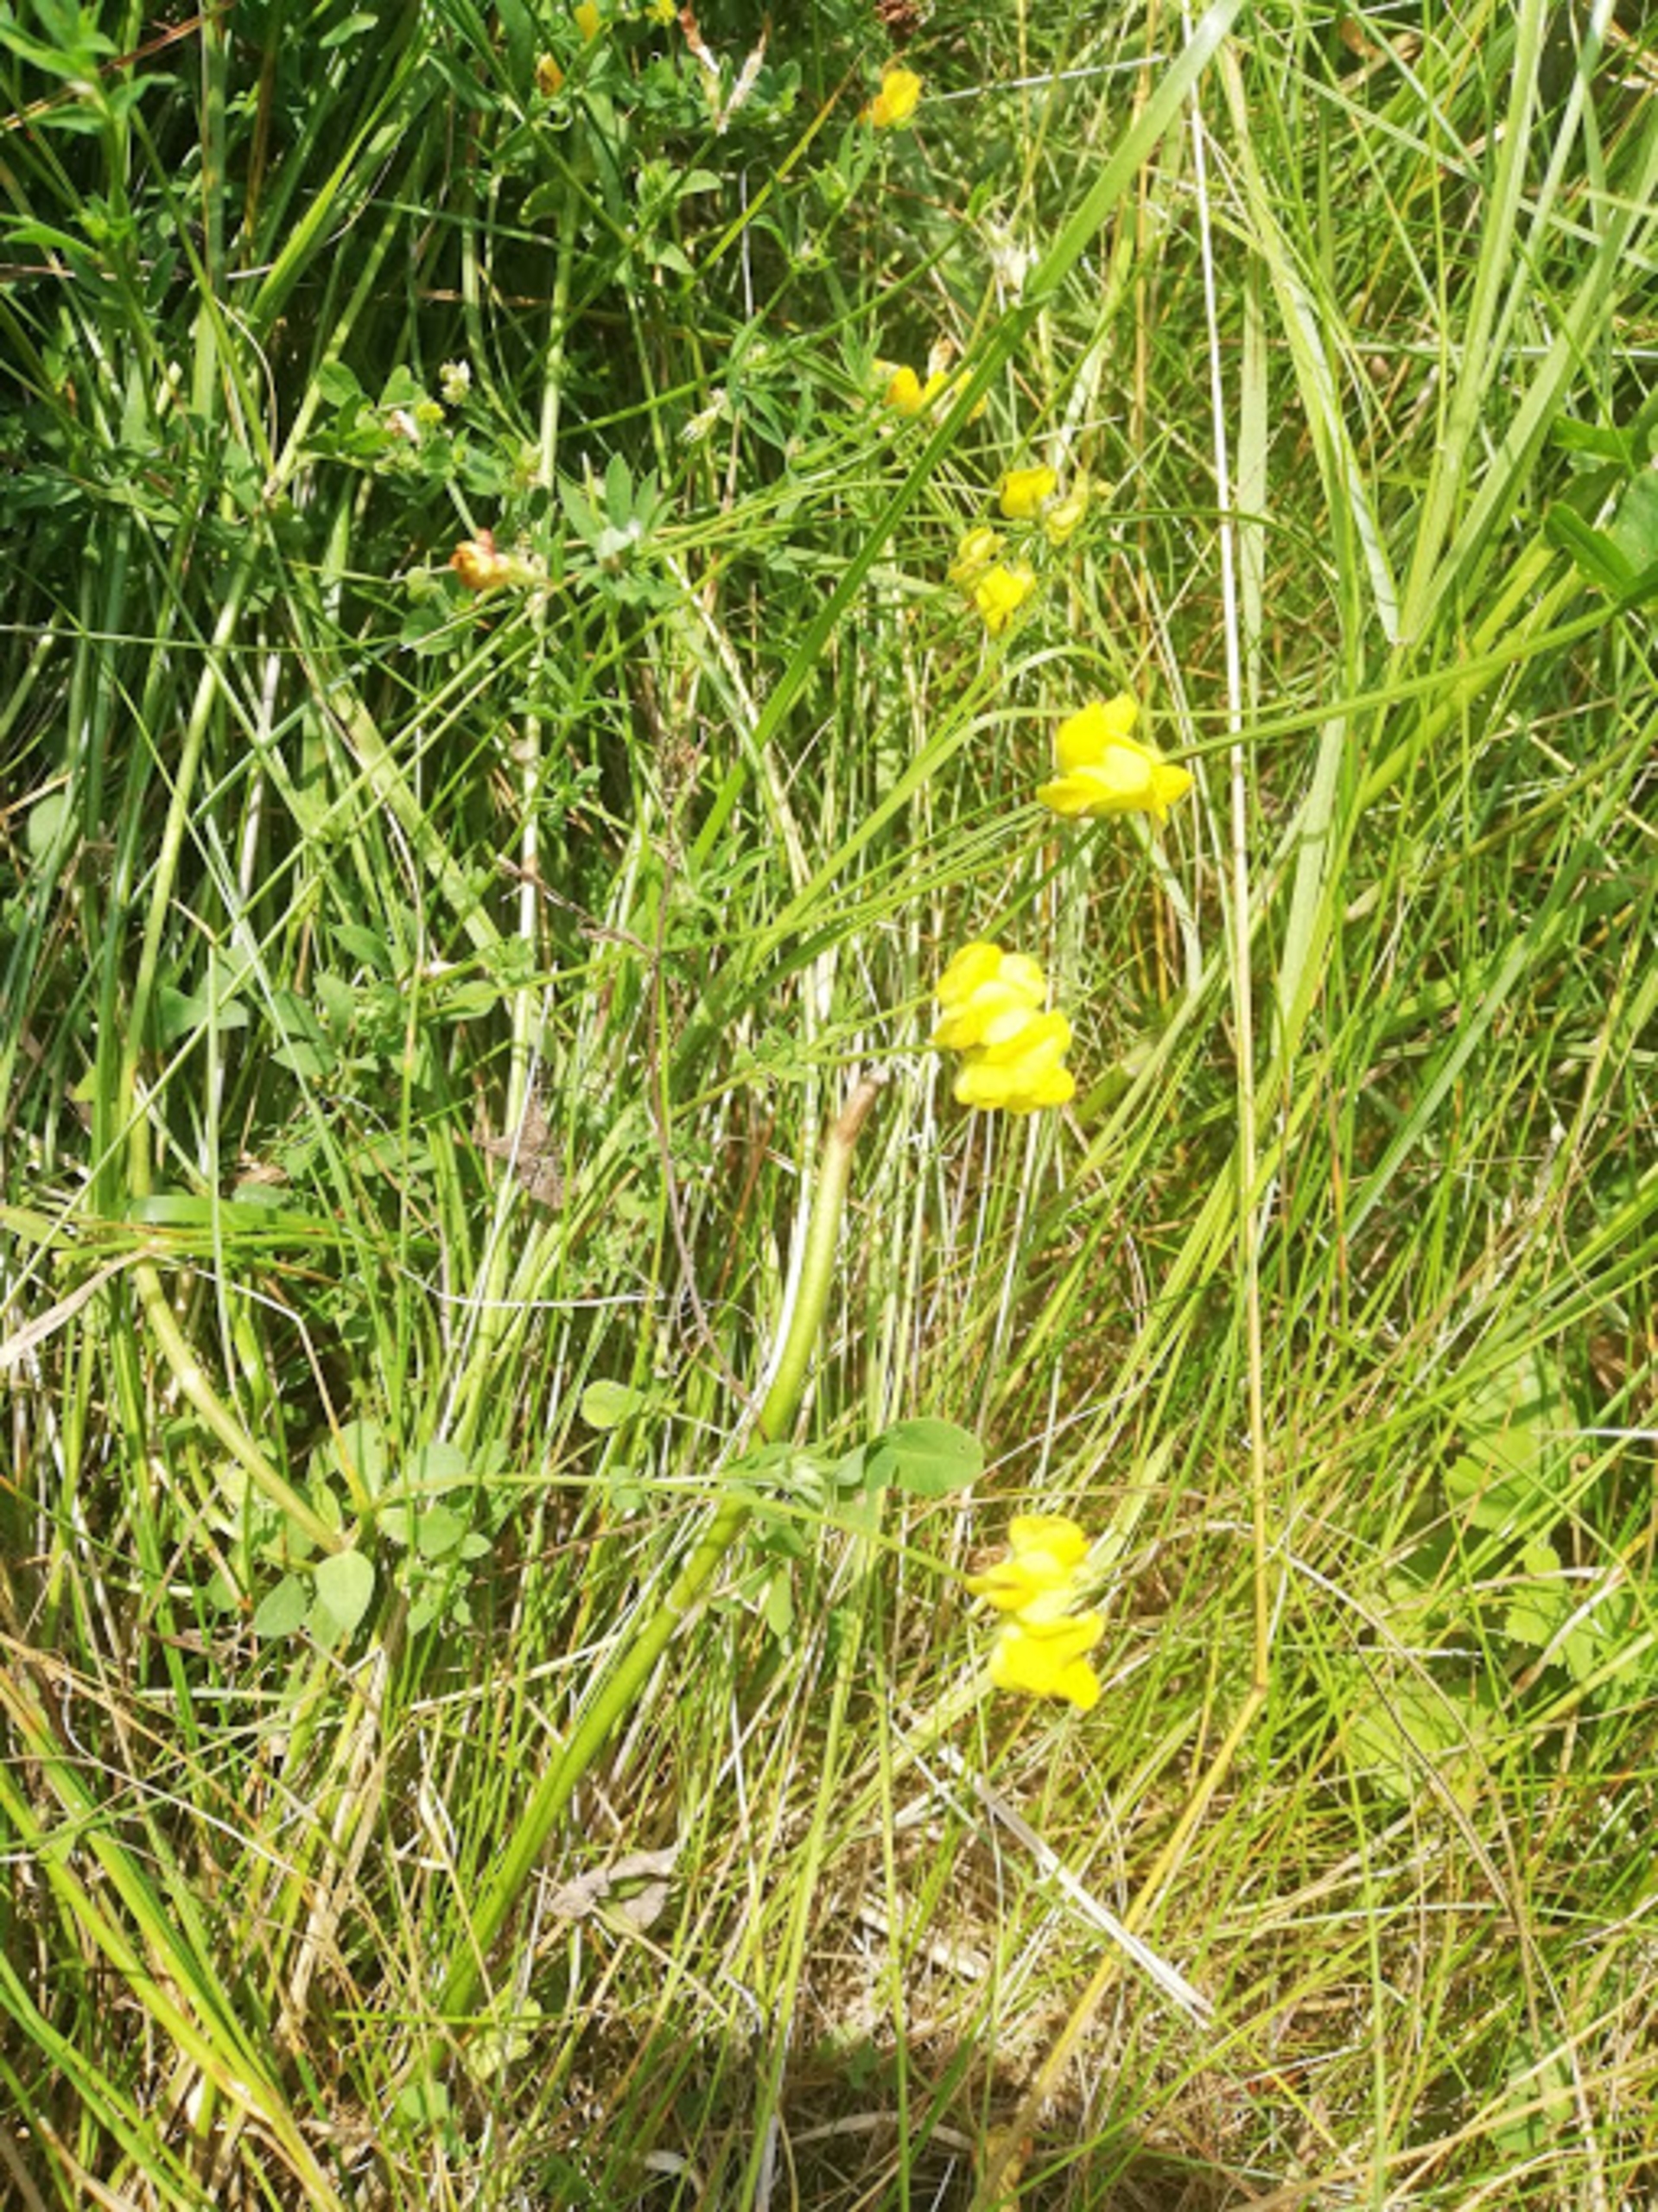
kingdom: Plantae
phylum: Tracheophyta
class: Magnoliopsida
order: Fabales
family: Fabaceae
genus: Lotus
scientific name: Lotus corniculatus
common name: Almindelig kællingetand
